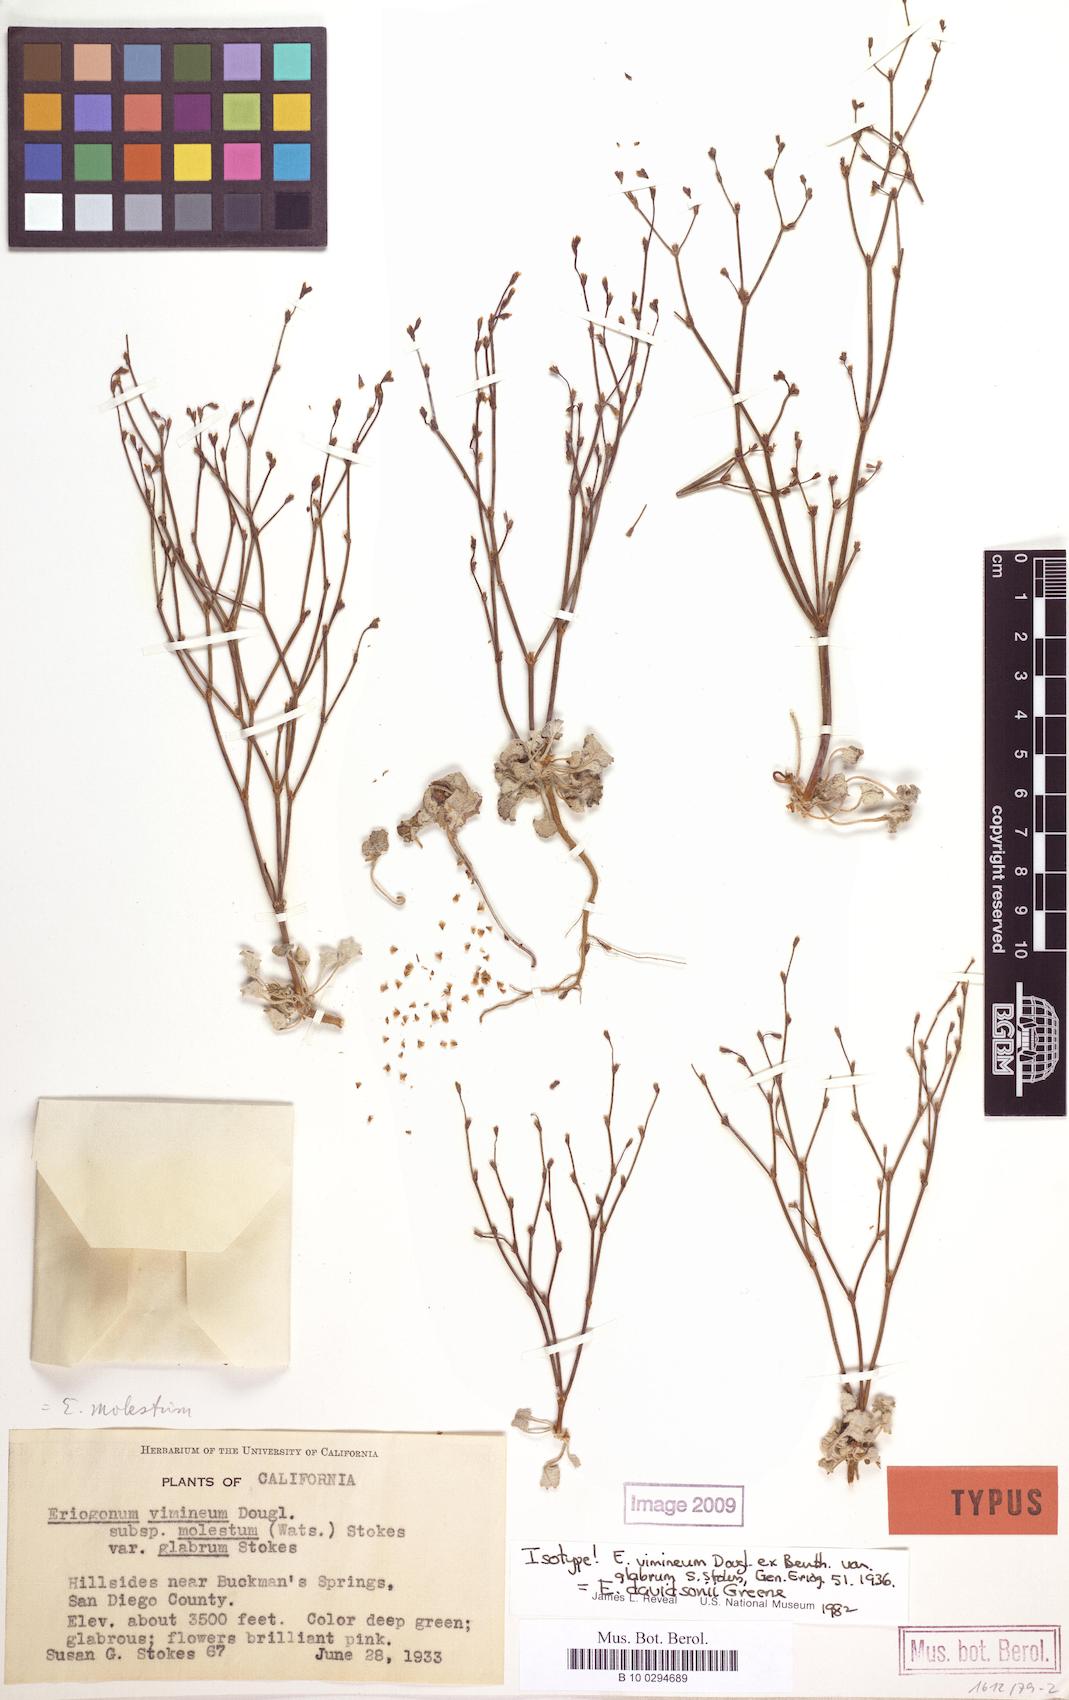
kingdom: Plantae
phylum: Tracheophyta
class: Magnoliopsida
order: Caryophyllales
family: Polygonaceae
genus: Eriogonum
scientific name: Eriogonum davidsonii
